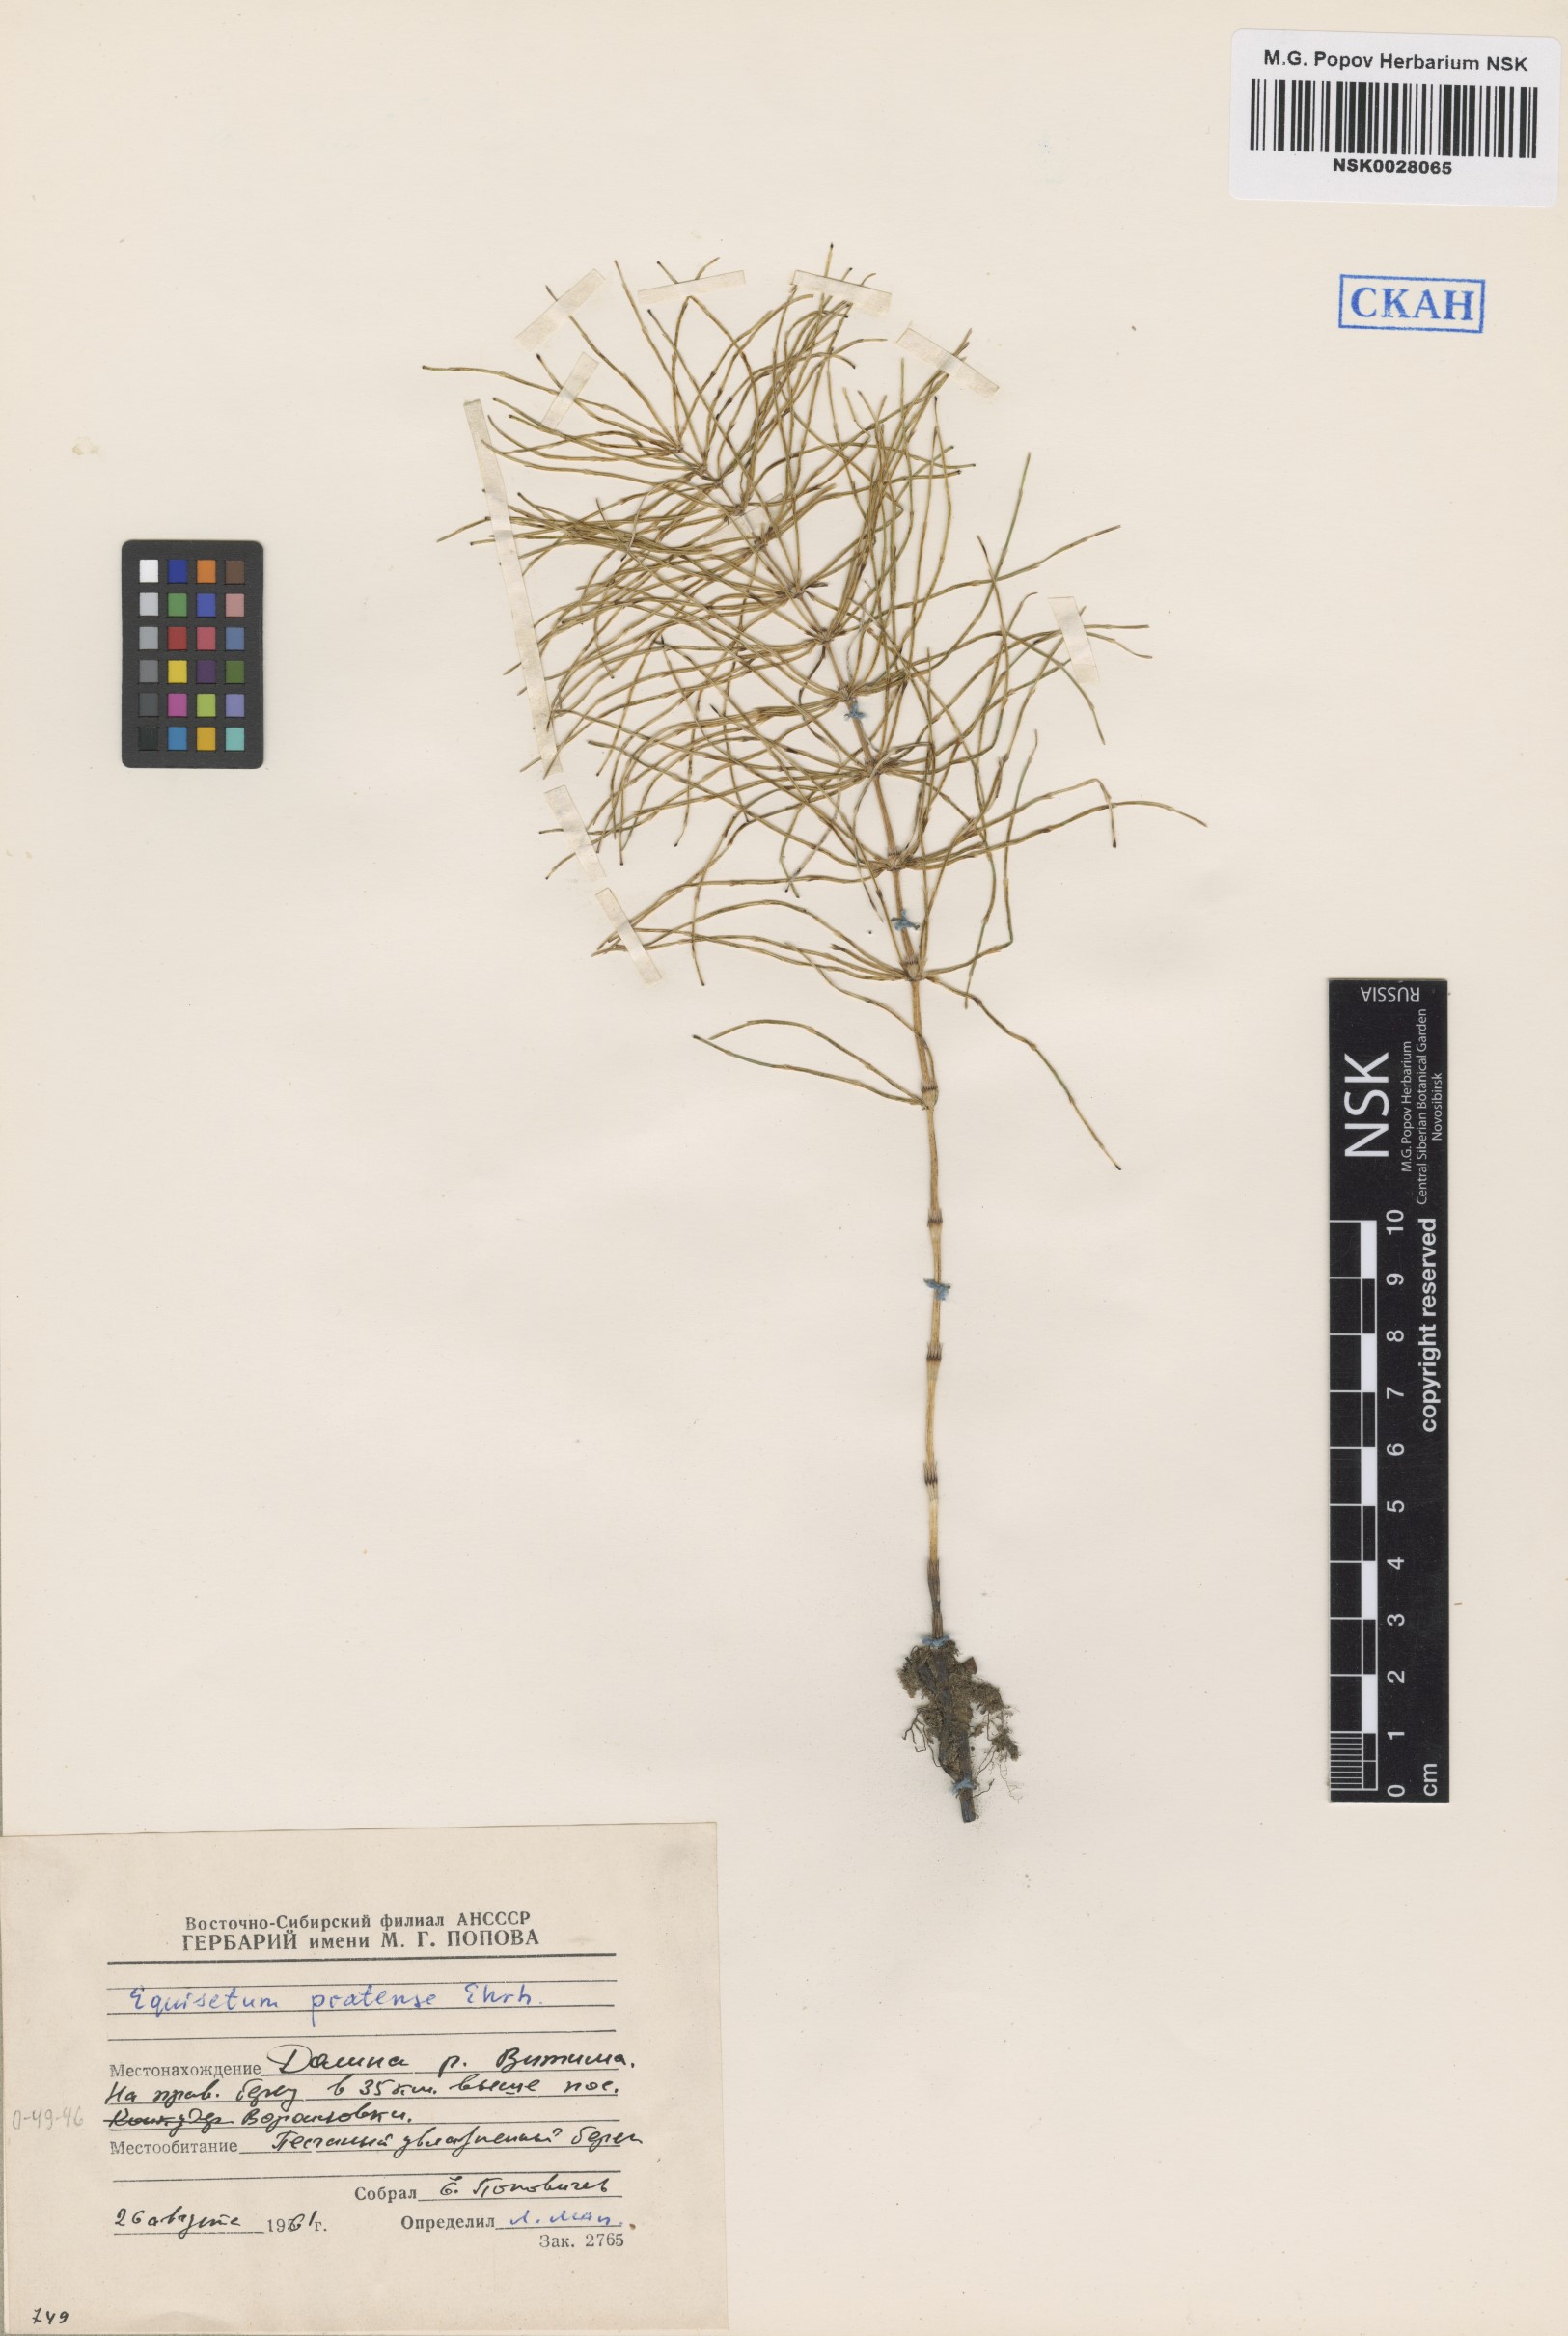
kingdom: Plantae
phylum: Tracheophyta
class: Polypodiopsida
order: Equisetales
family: Equisetaceae
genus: Equisetum
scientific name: Equisetum pratense
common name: Meadow horsetail
